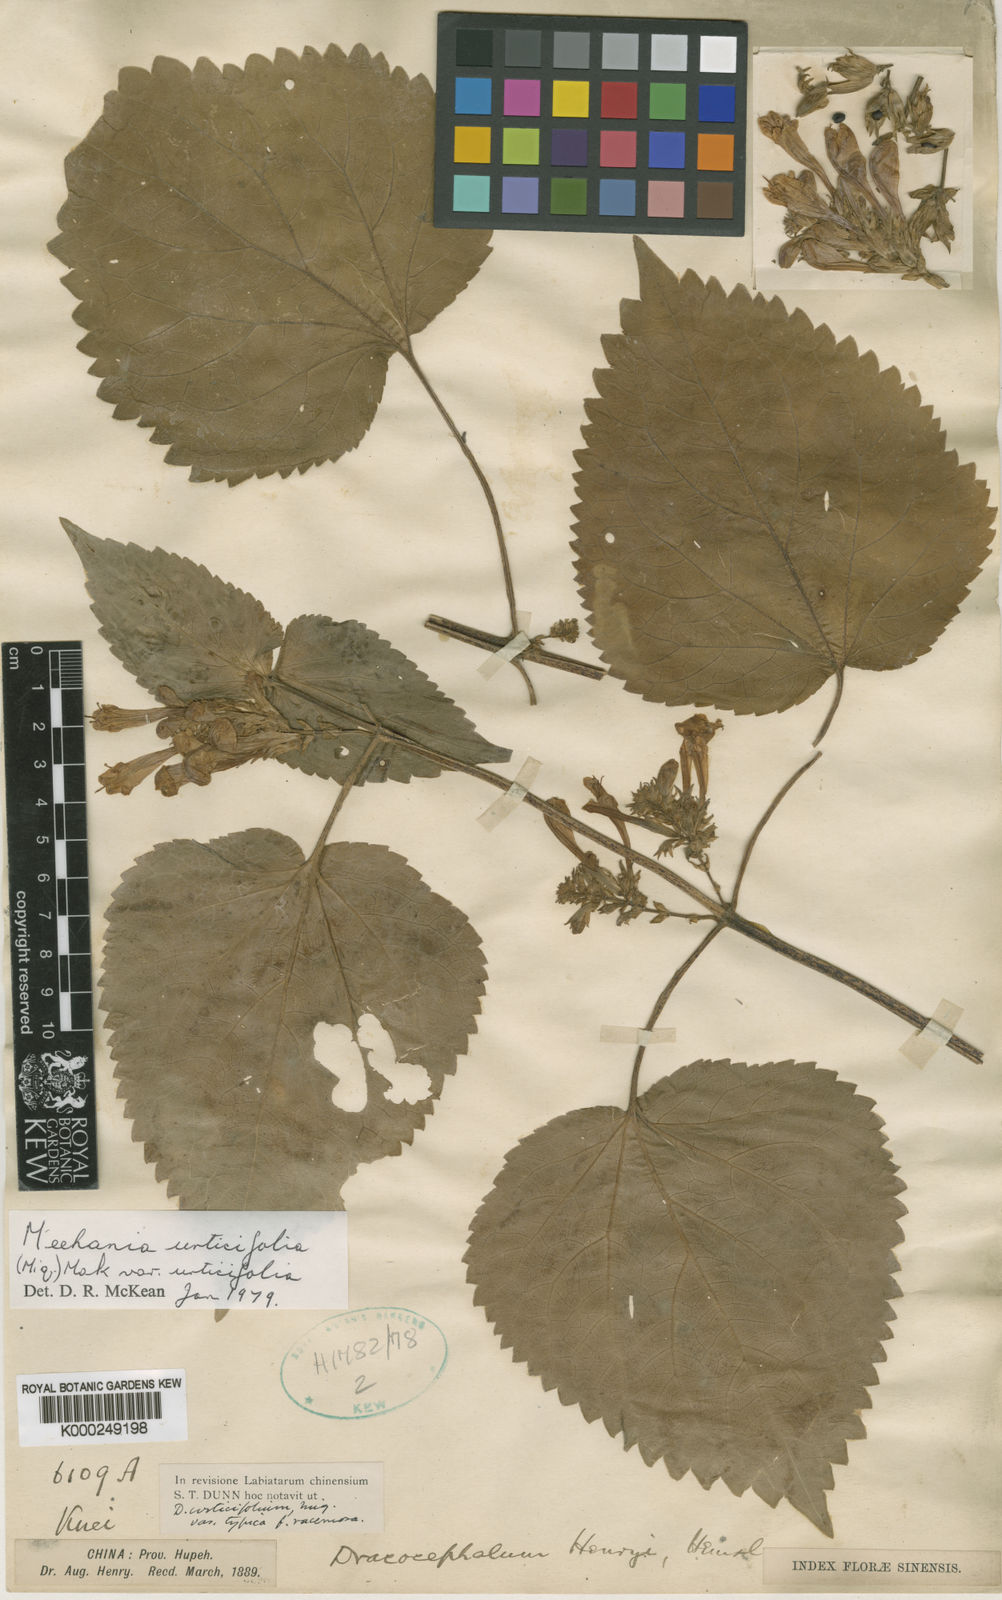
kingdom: Plantae
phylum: Tracheophyta
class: Magnoliopsida
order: Lamiales
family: Lamiaceae
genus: Meehania
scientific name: Meehania henryi
